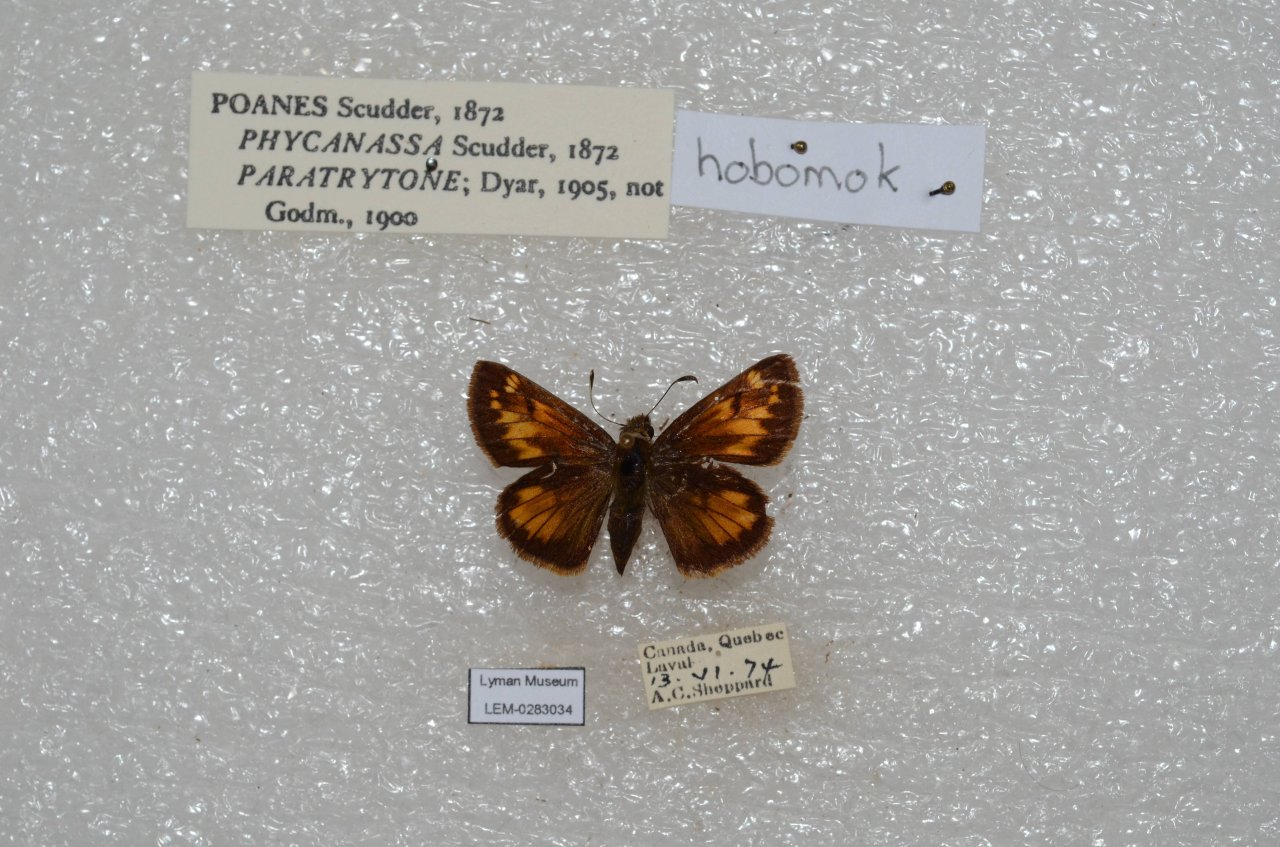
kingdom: Animalia
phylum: Arthropoda
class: Insecta
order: Lepidoptera
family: Hesperiidae
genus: Lon
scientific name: Lon hobomok
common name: Hobomok Skipper
